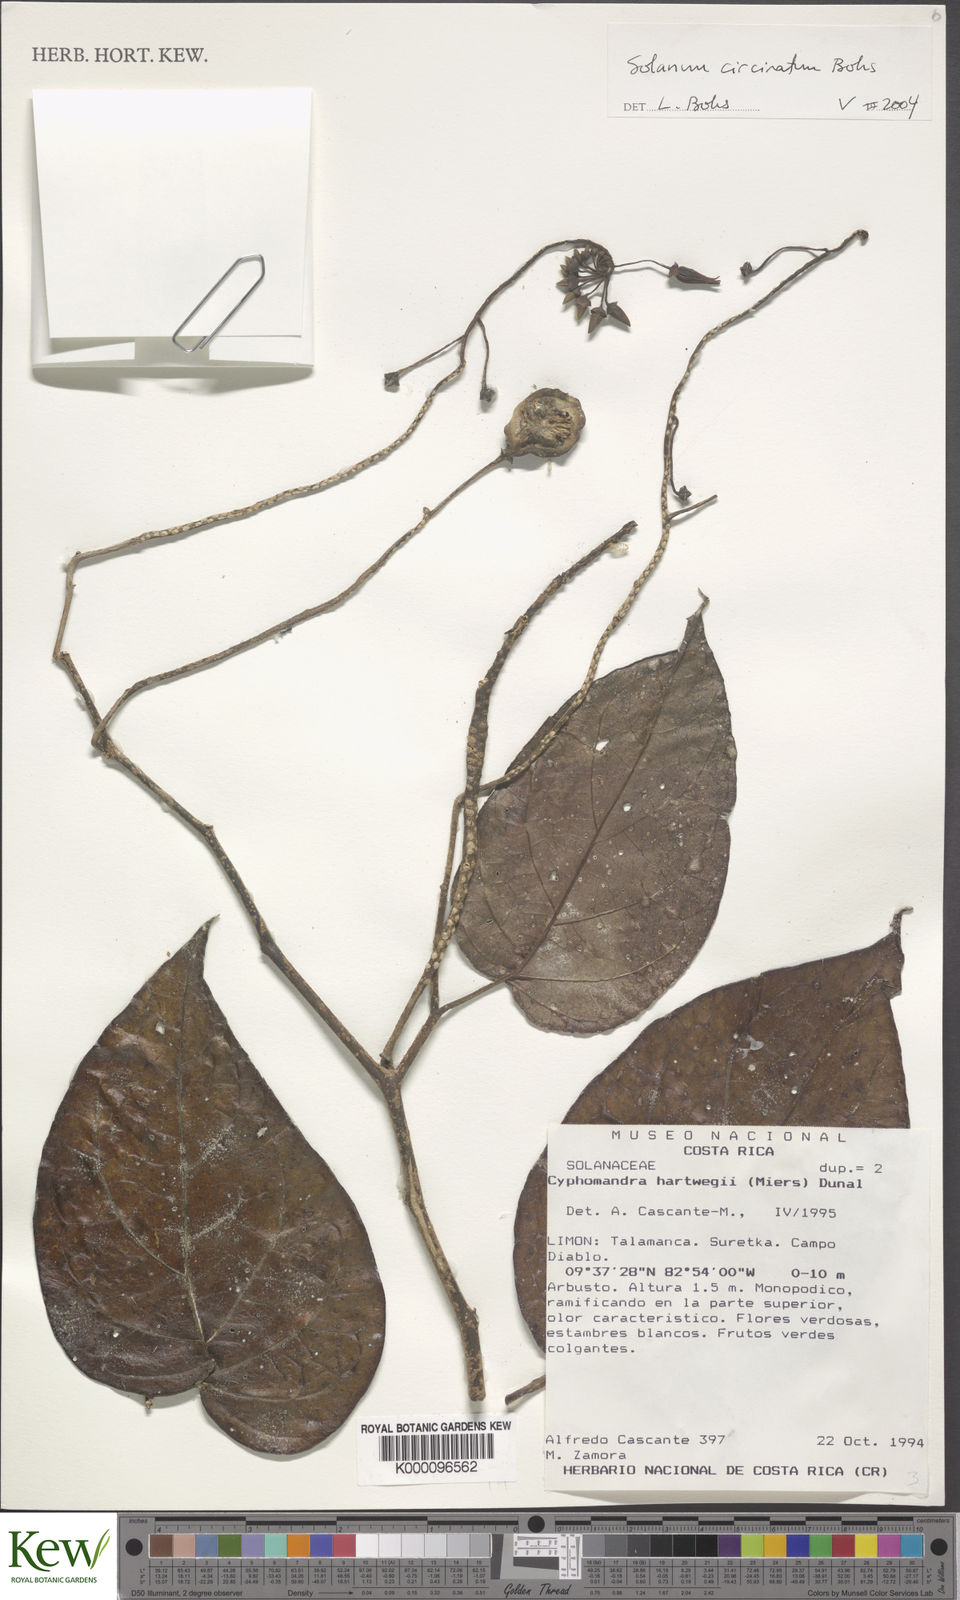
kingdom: Plantae
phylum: Tracheophyta
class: Magnoliopsida
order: Solanales
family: Solanaceae
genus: Solanum
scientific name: Solanum splendens
